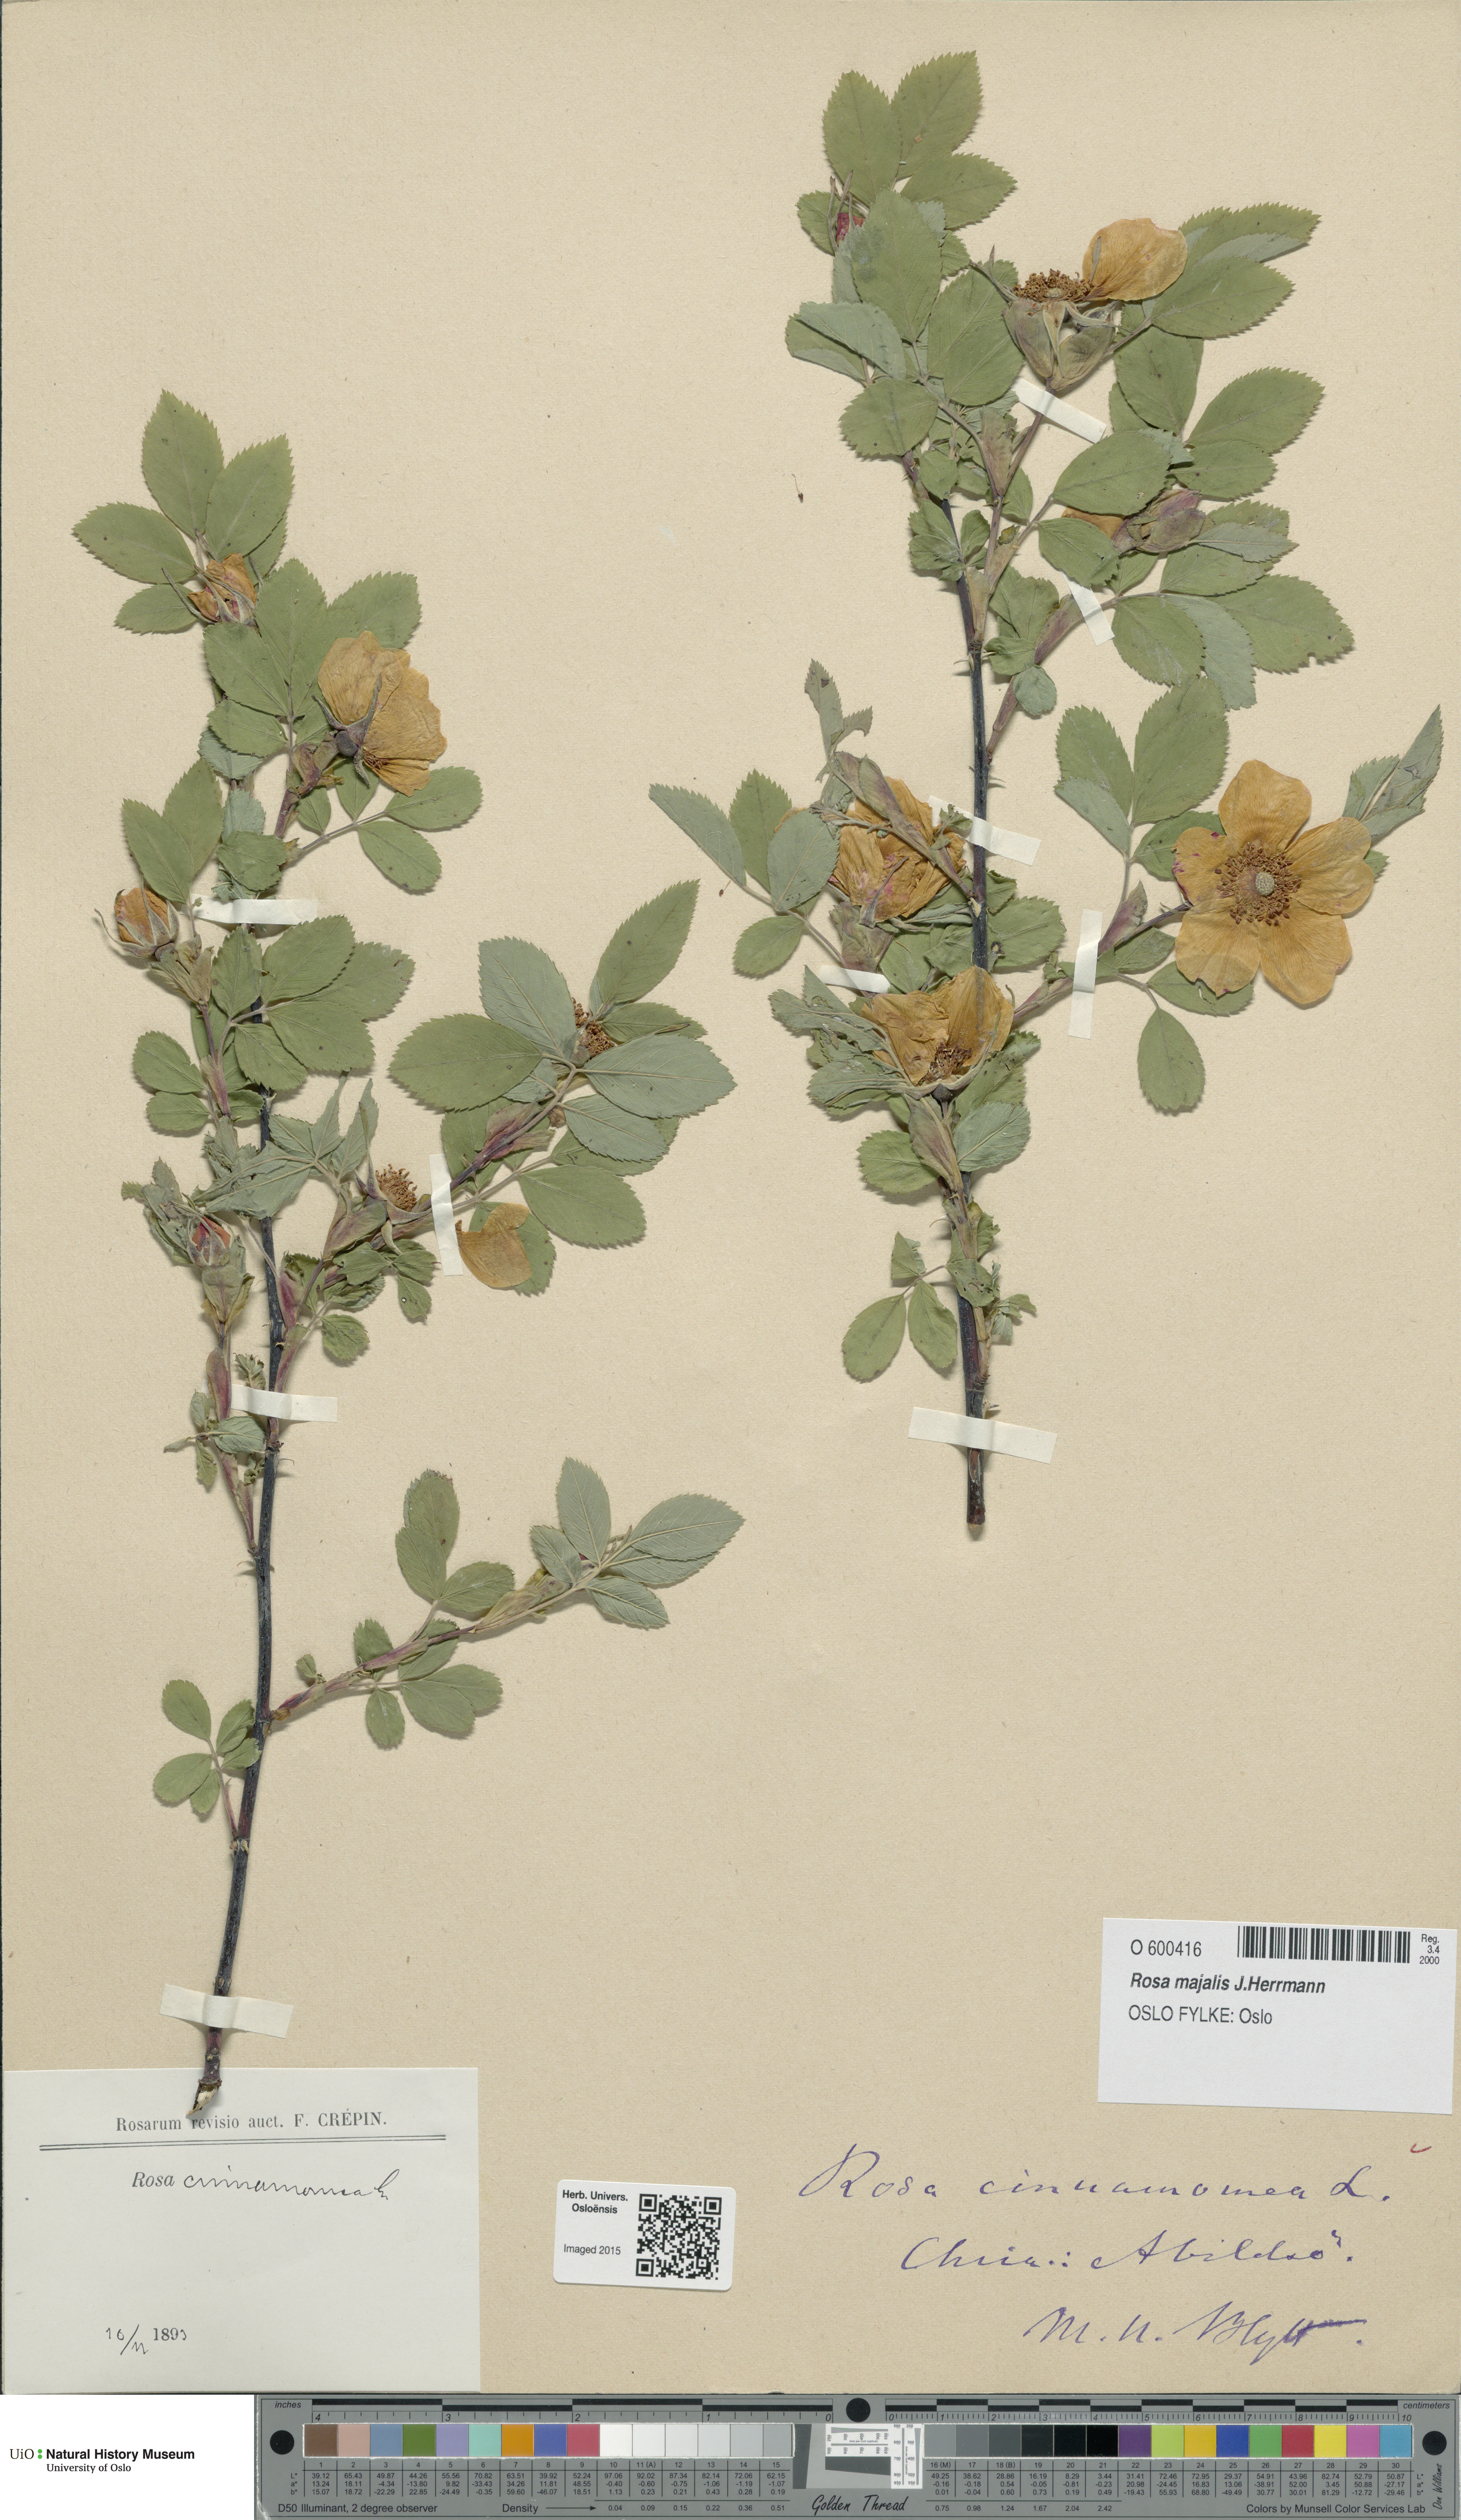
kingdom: Plantae
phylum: Tracheophyta
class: Magnoliopsida
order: Rosales
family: Rosaceae
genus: Rosa
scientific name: Rosa pendulina
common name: Alpine rose
